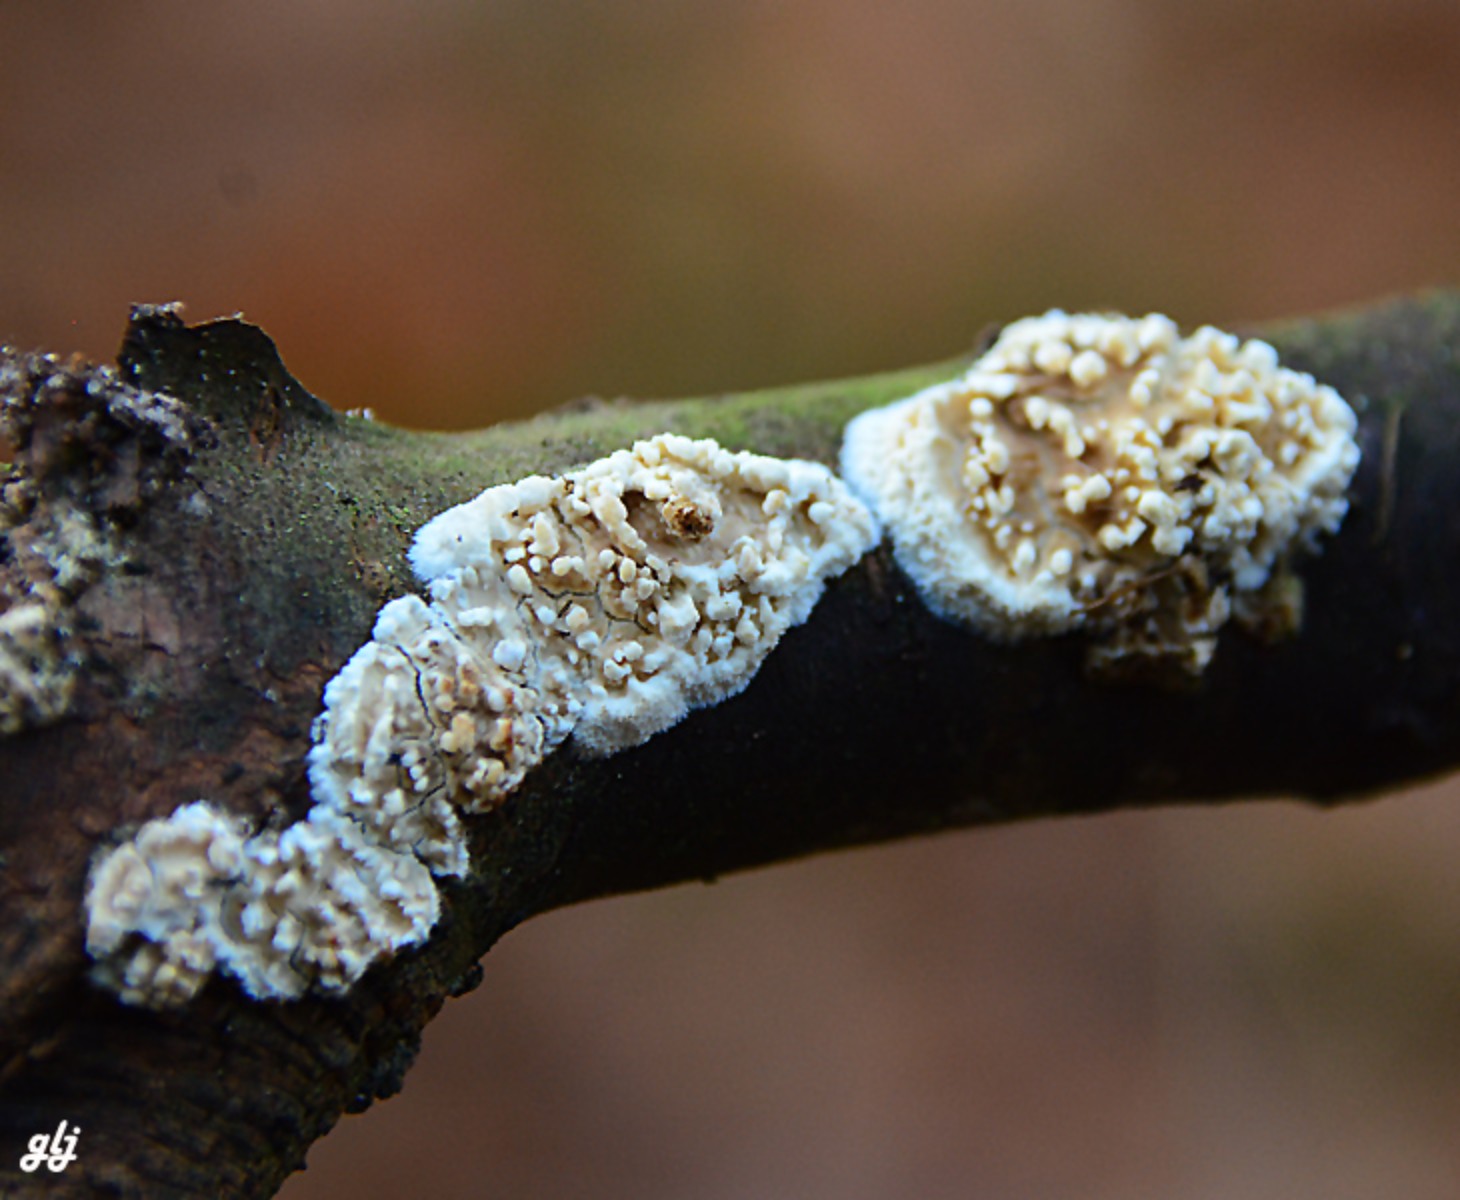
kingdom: Fungi
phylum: Basidiomycota
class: Agaricomycetes
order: Hymenochaetales
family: Schizoporaceae
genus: Xylodon
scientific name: Xylodon radula
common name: grovtandet kalkskind
